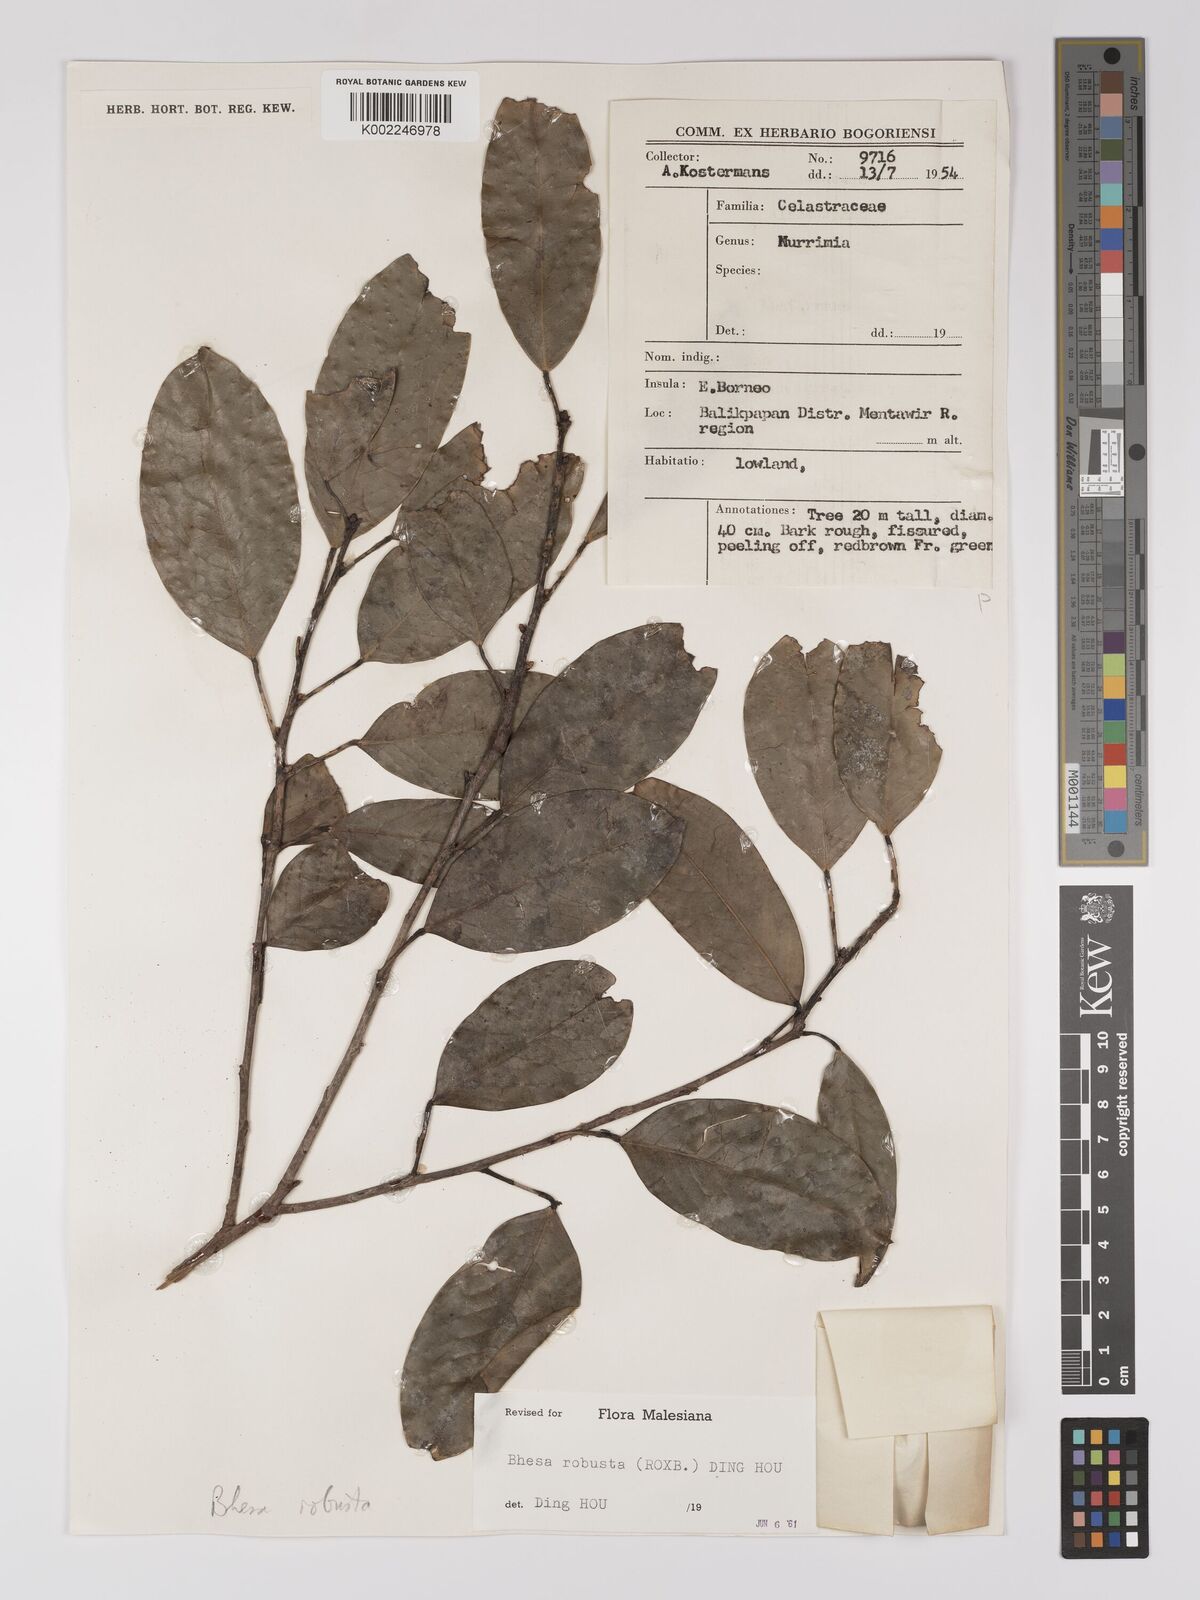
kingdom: Plantae
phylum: Tracheophyta
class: Magnoliopsida
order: Malpighiales
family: Centroplacaceae
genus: Bhesa
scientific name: Bhesa robusta
